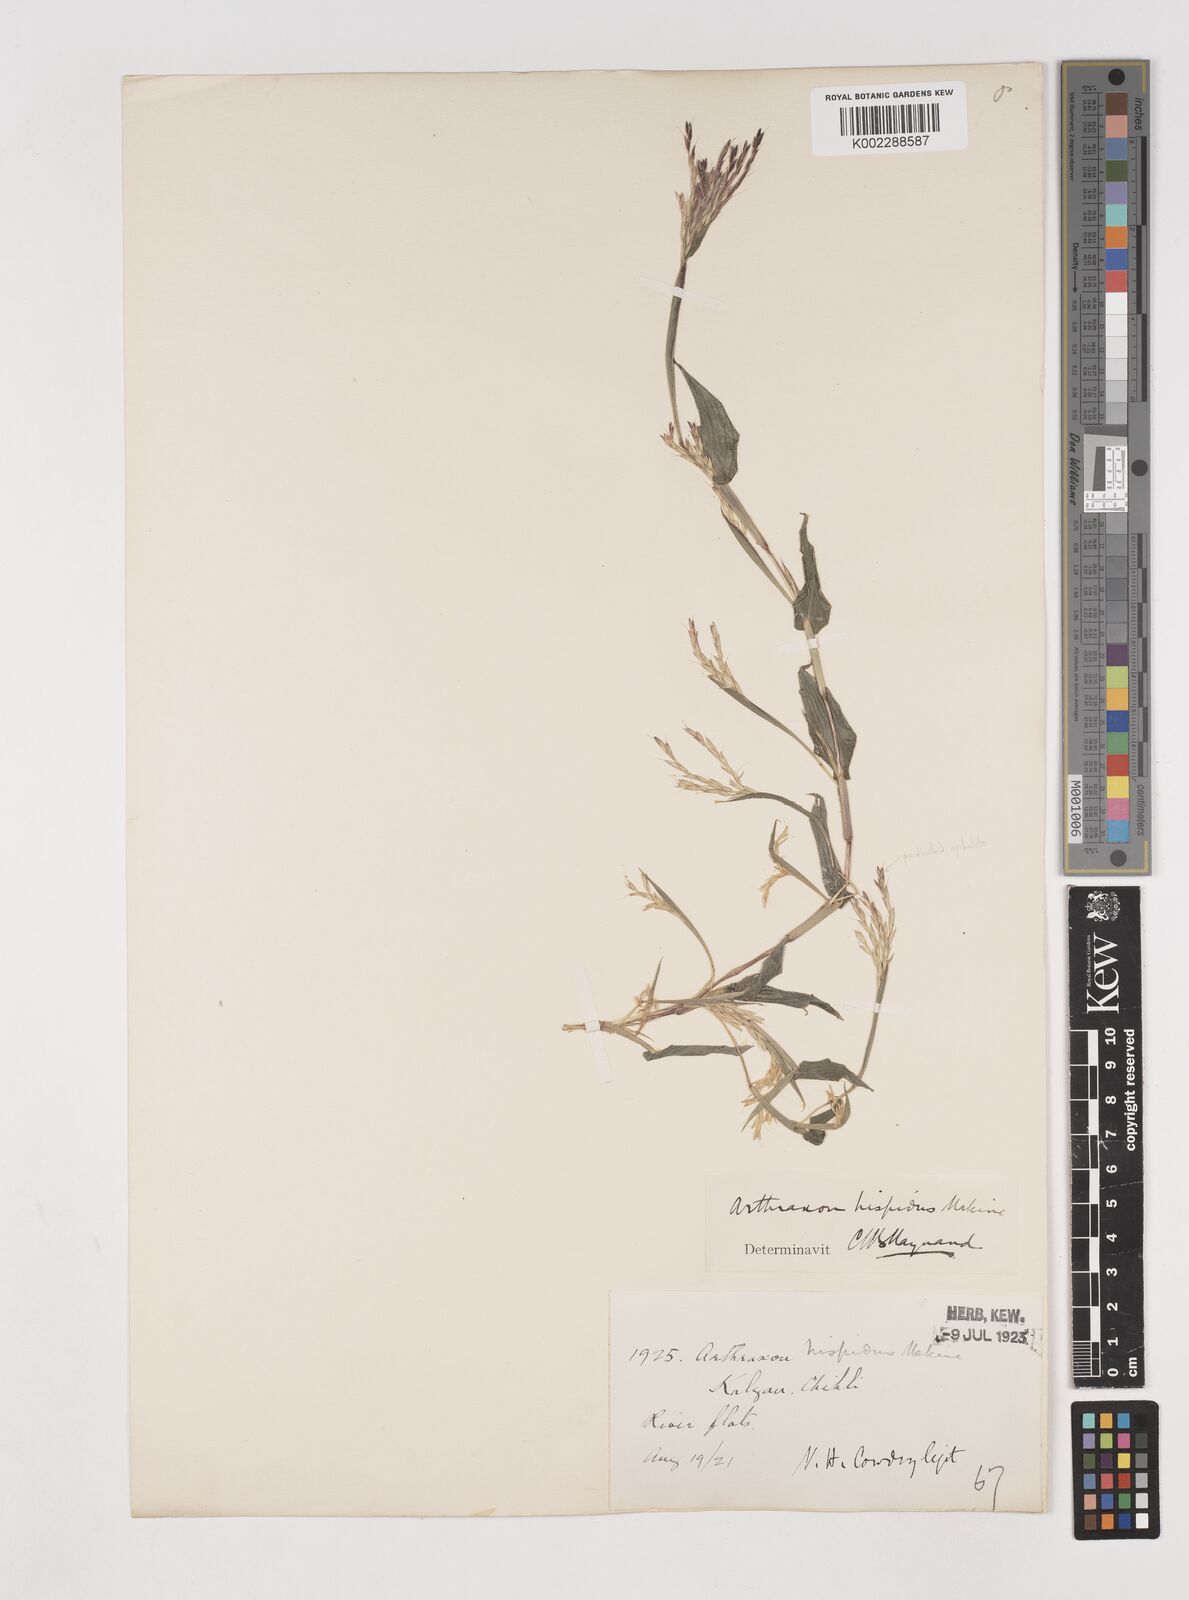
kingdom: Plantae
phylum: Tracheophyta
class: Liliopsida
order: Poales
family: Poaceae
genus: Arthraxon
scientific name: Arthraxon hispidus
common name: Small carpgrass
